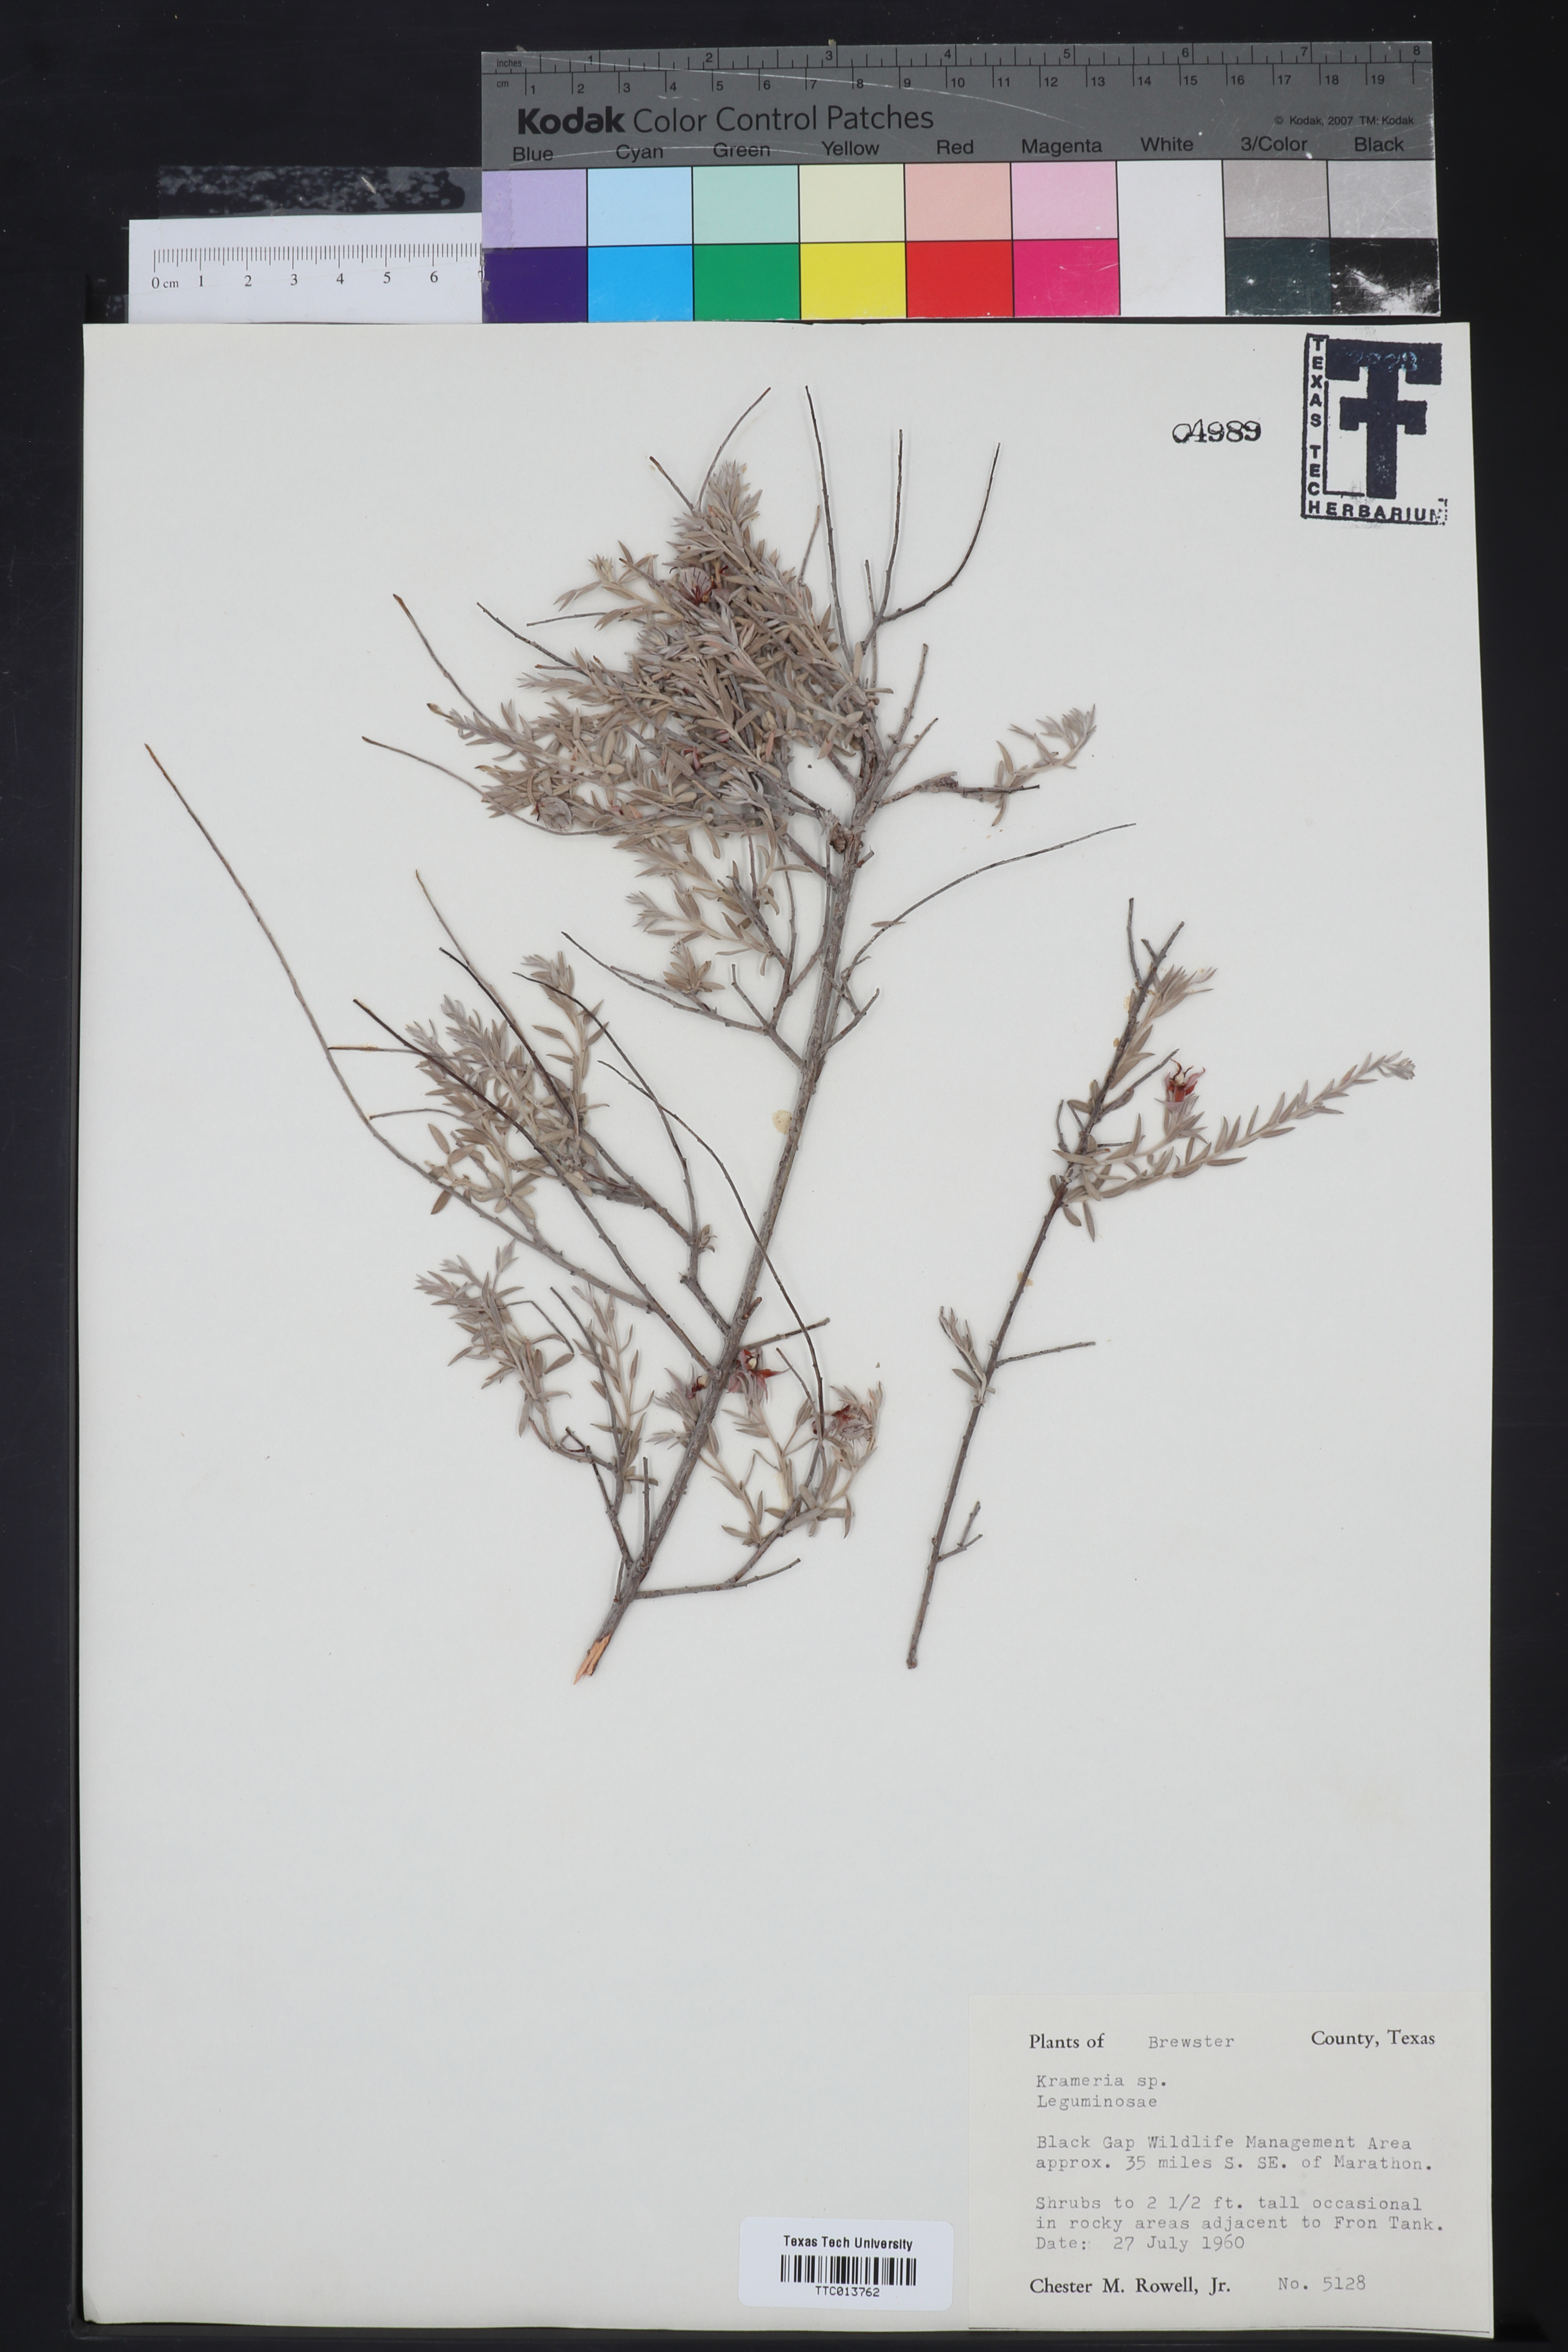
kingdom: Plantae
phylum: Tracheophyta
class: Magnoliopsida
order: Zygophyllales
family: Krameriaceae
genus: Krameria
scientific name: Krameria
